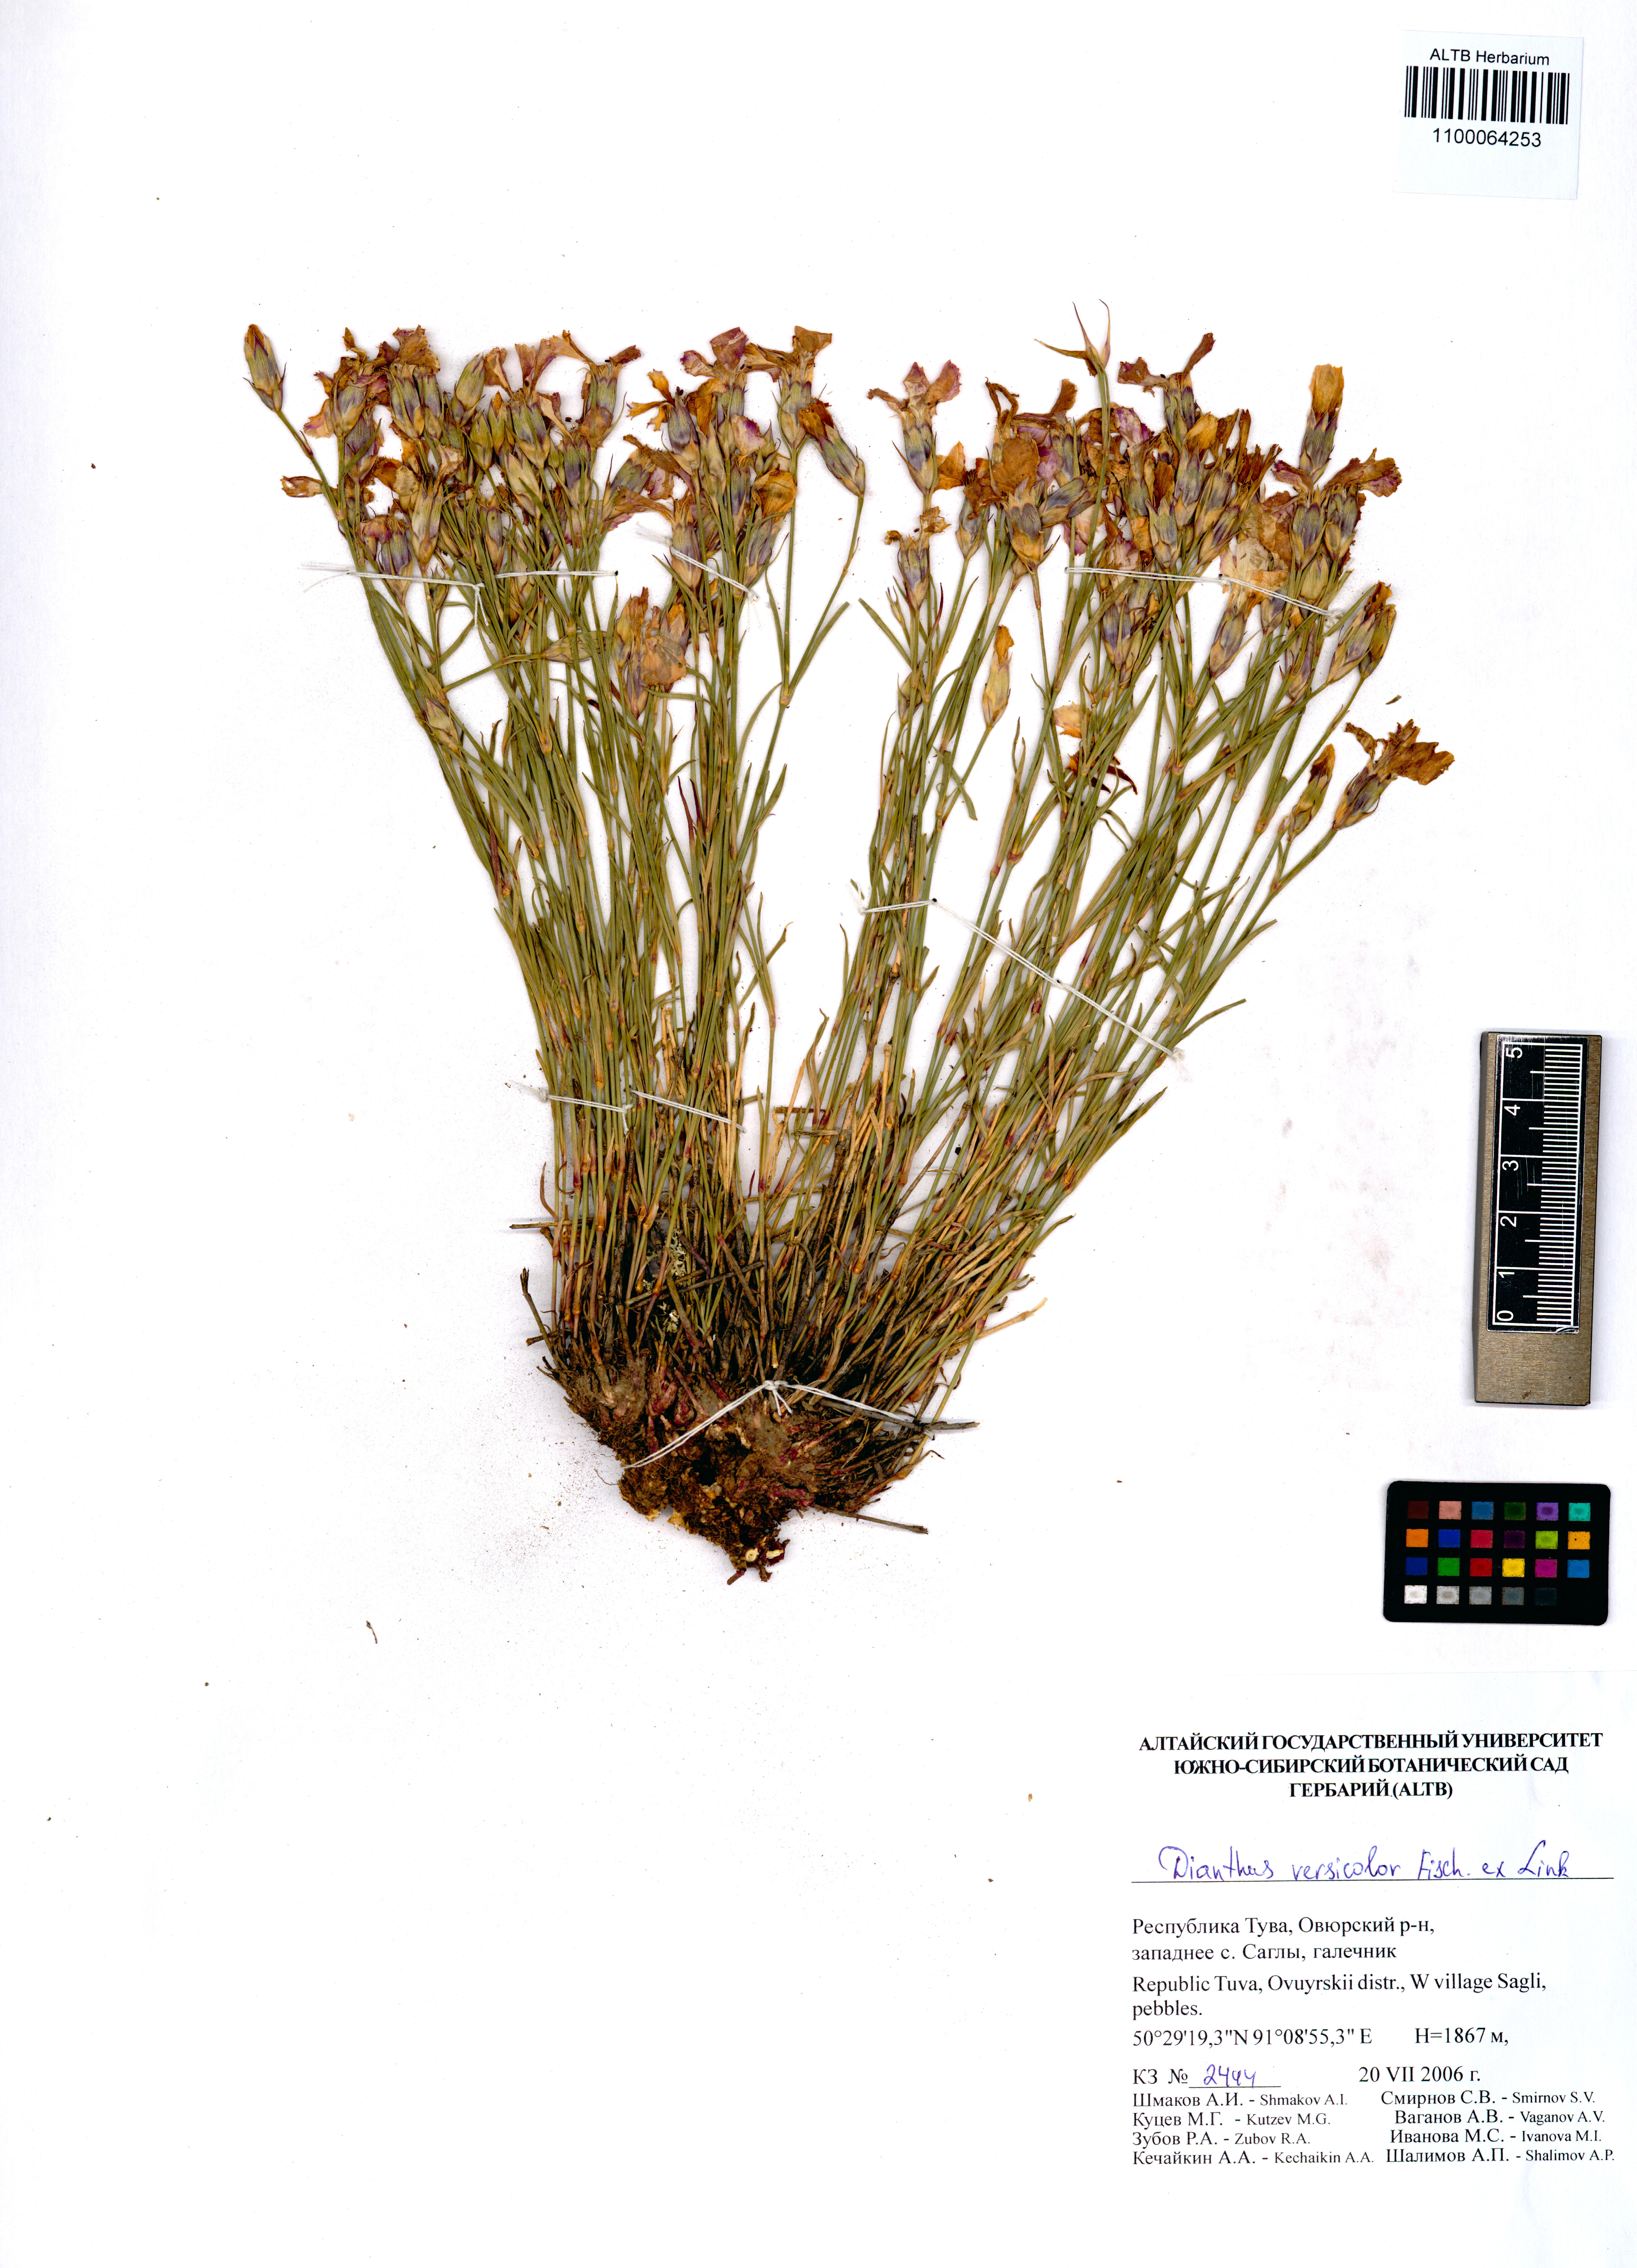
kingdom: Plantae
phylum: Tracheophyta
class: Magnoliopsida
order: Caryophyllales
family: Caryophyllaceae
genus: Dianthus
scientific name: Dianthus chinensis
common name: Rainbow pink
